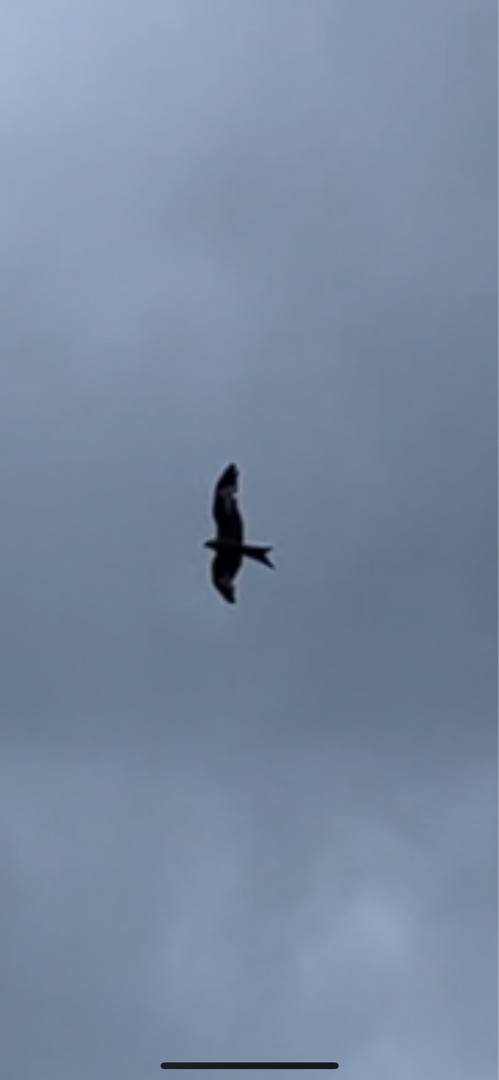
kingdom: Animalia
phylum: Chordata
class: Aves
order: Accipitriformes
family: Accipitridae
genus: Milvus
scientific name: Milvus milvus
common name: Rød glente
